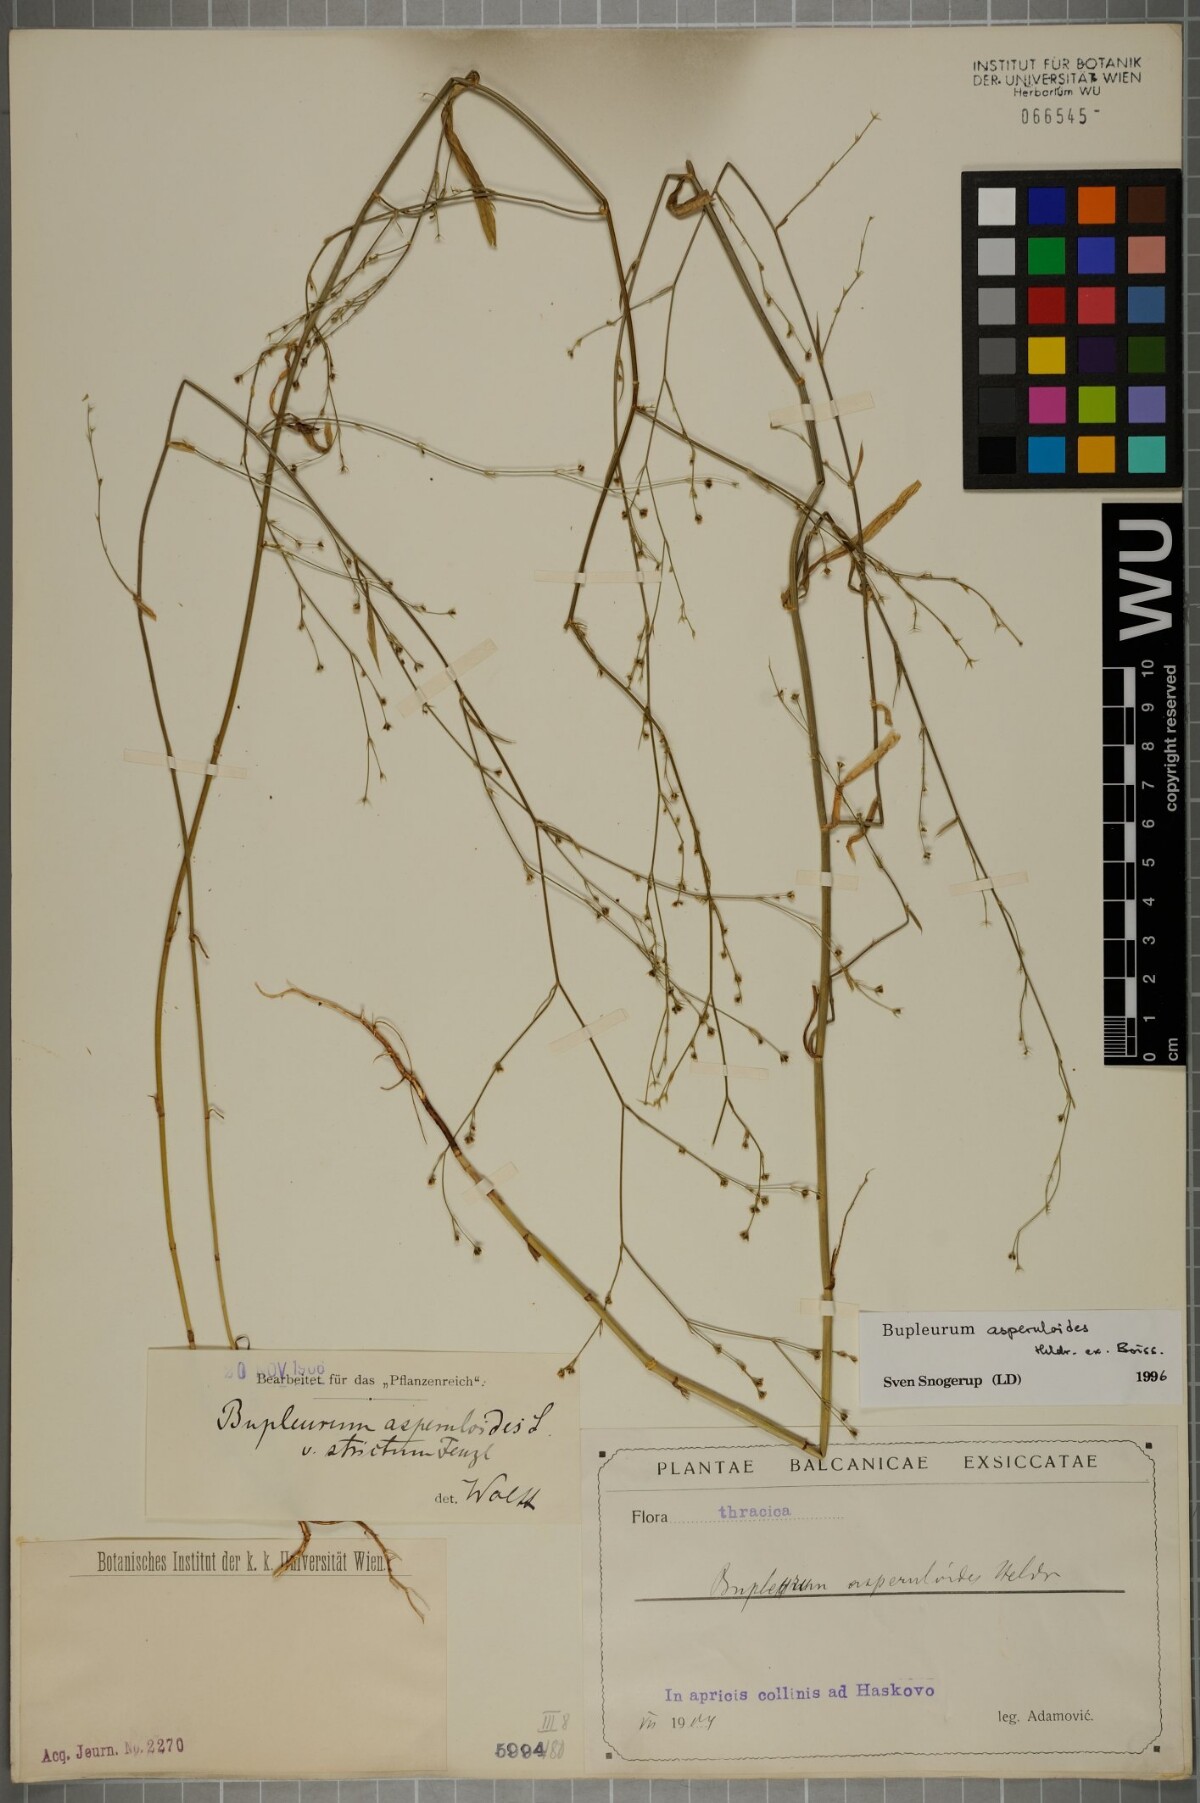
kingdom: Plantae
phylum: Tracheophyta
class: Magnoliopsida
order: Apiales
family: Apiaceae
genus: Bupleurum
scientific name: Bupleurum asperuloides
